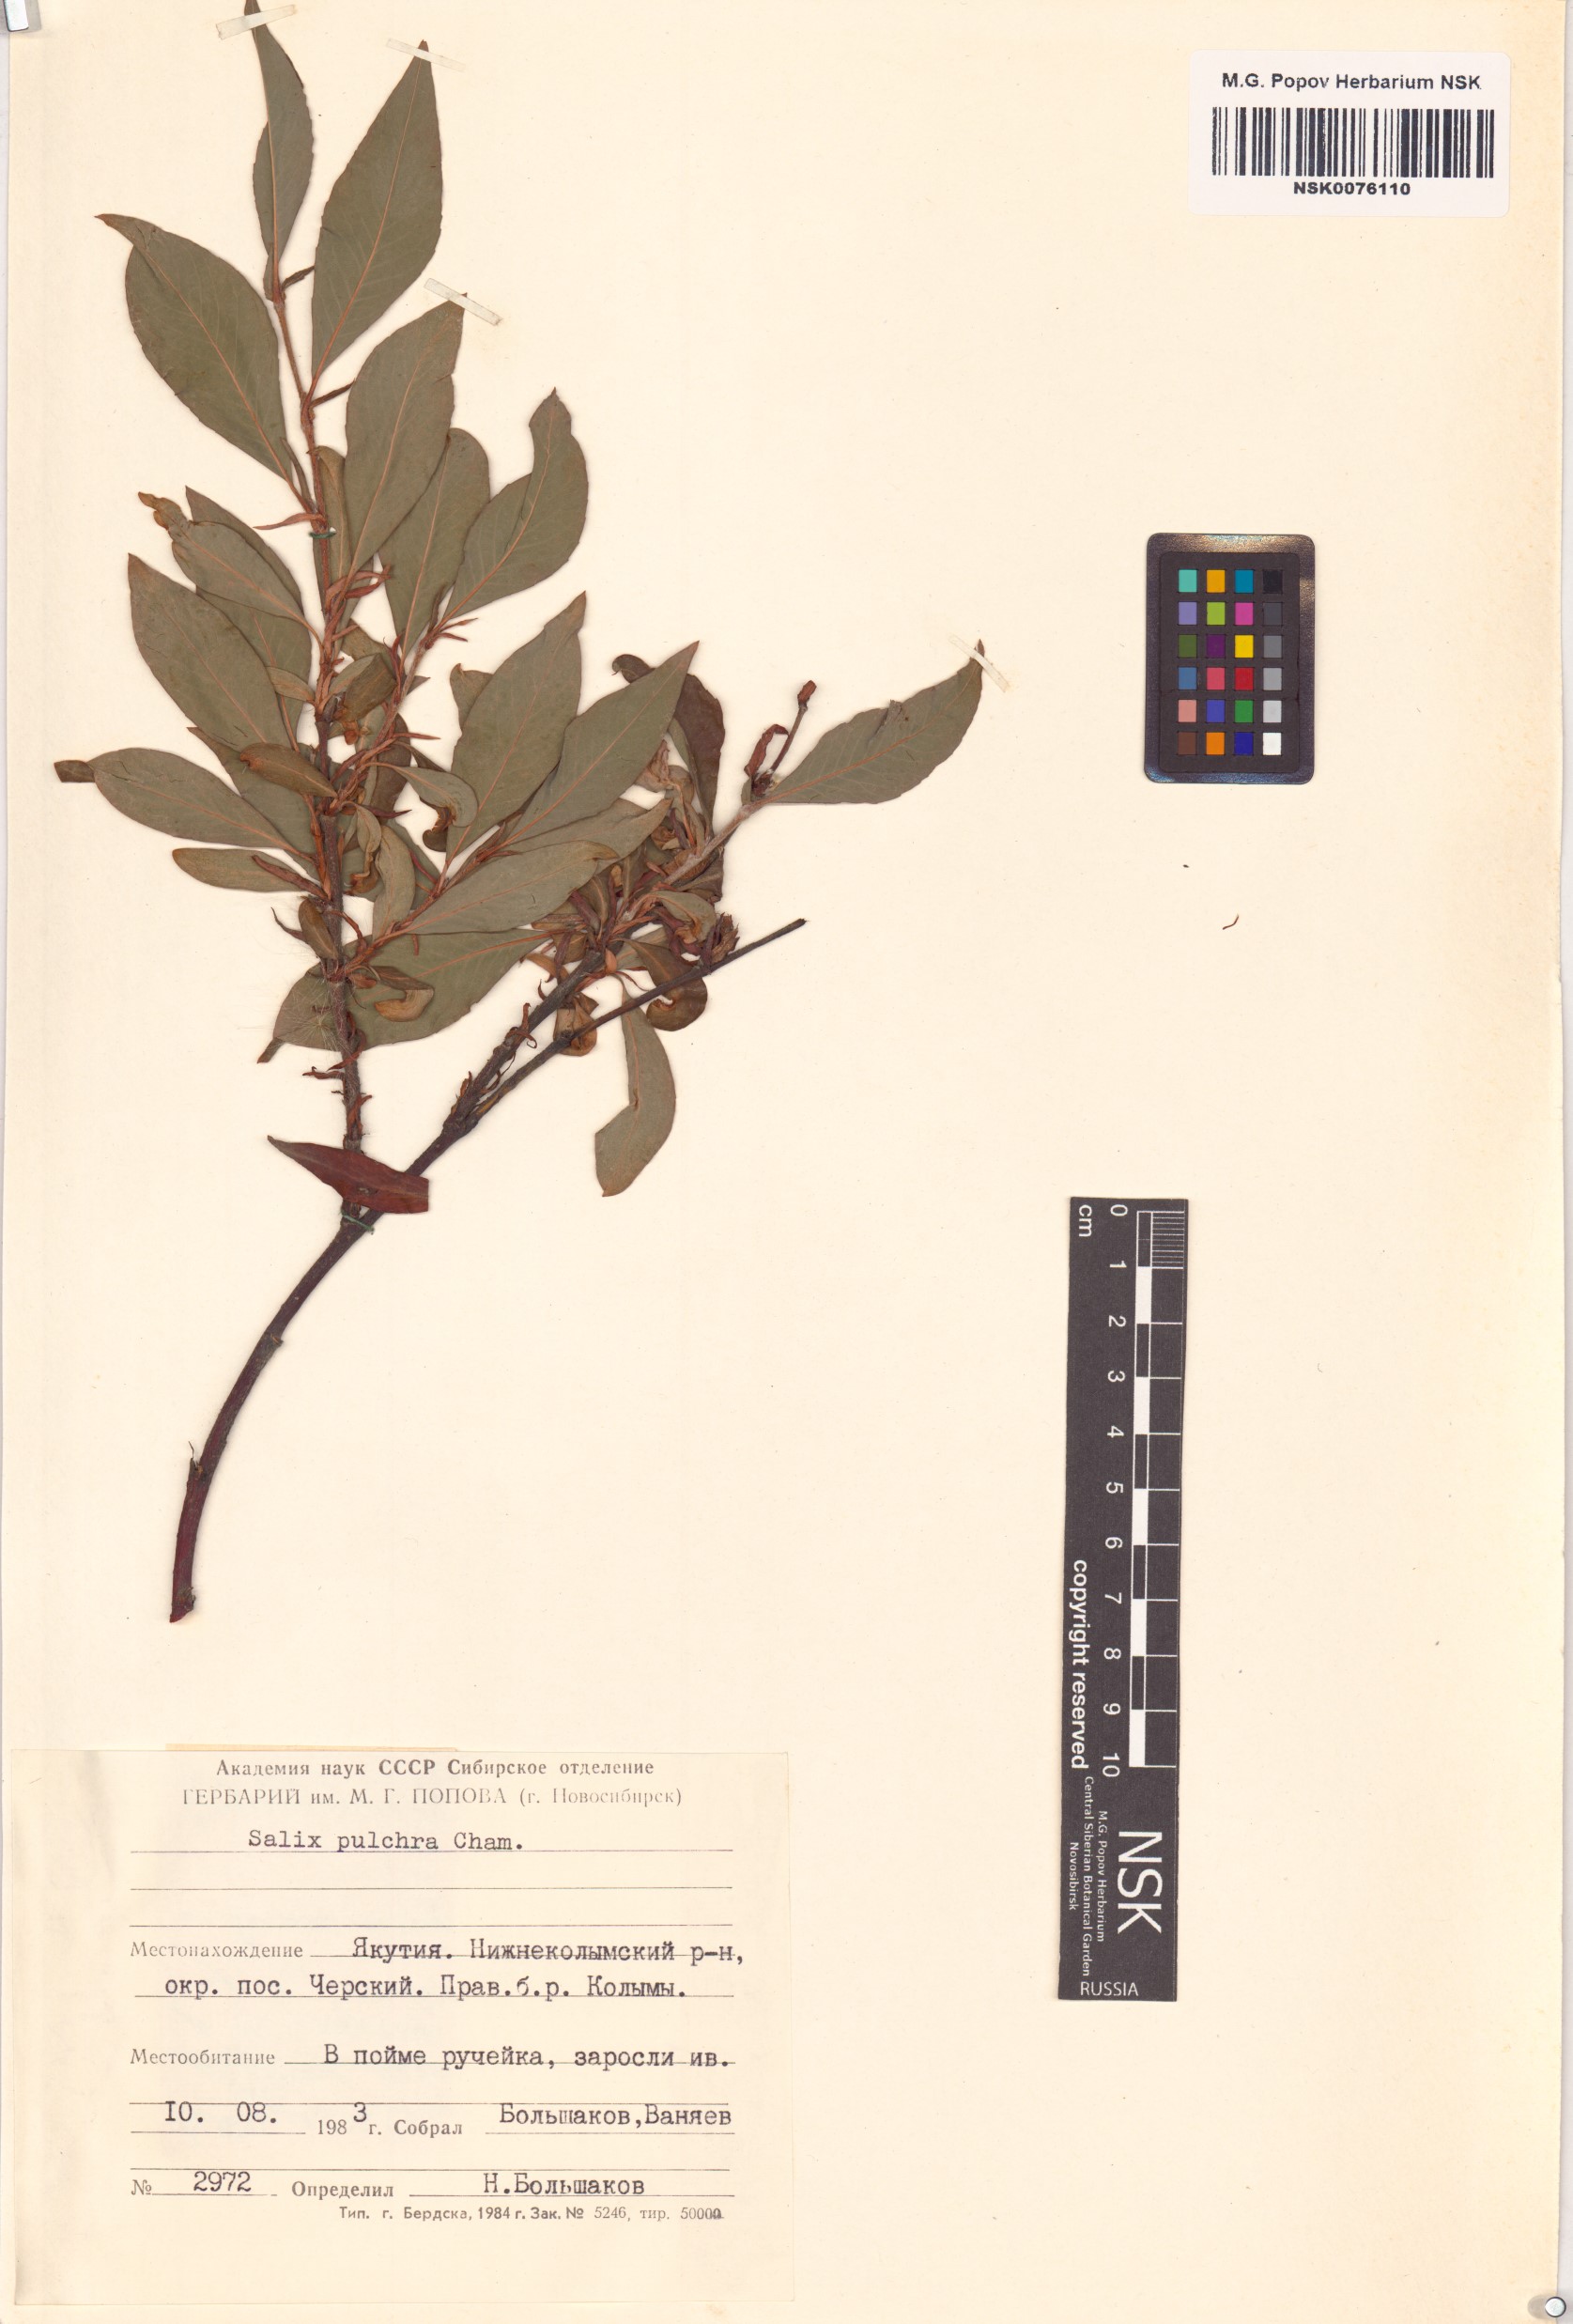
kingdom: Plantae
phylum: Tracheophyta
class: Magnoliopsida
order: Malpighiales
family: Salicaceae
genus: Salix
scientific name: Salix pulchra
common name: Diamond-leaved willow
